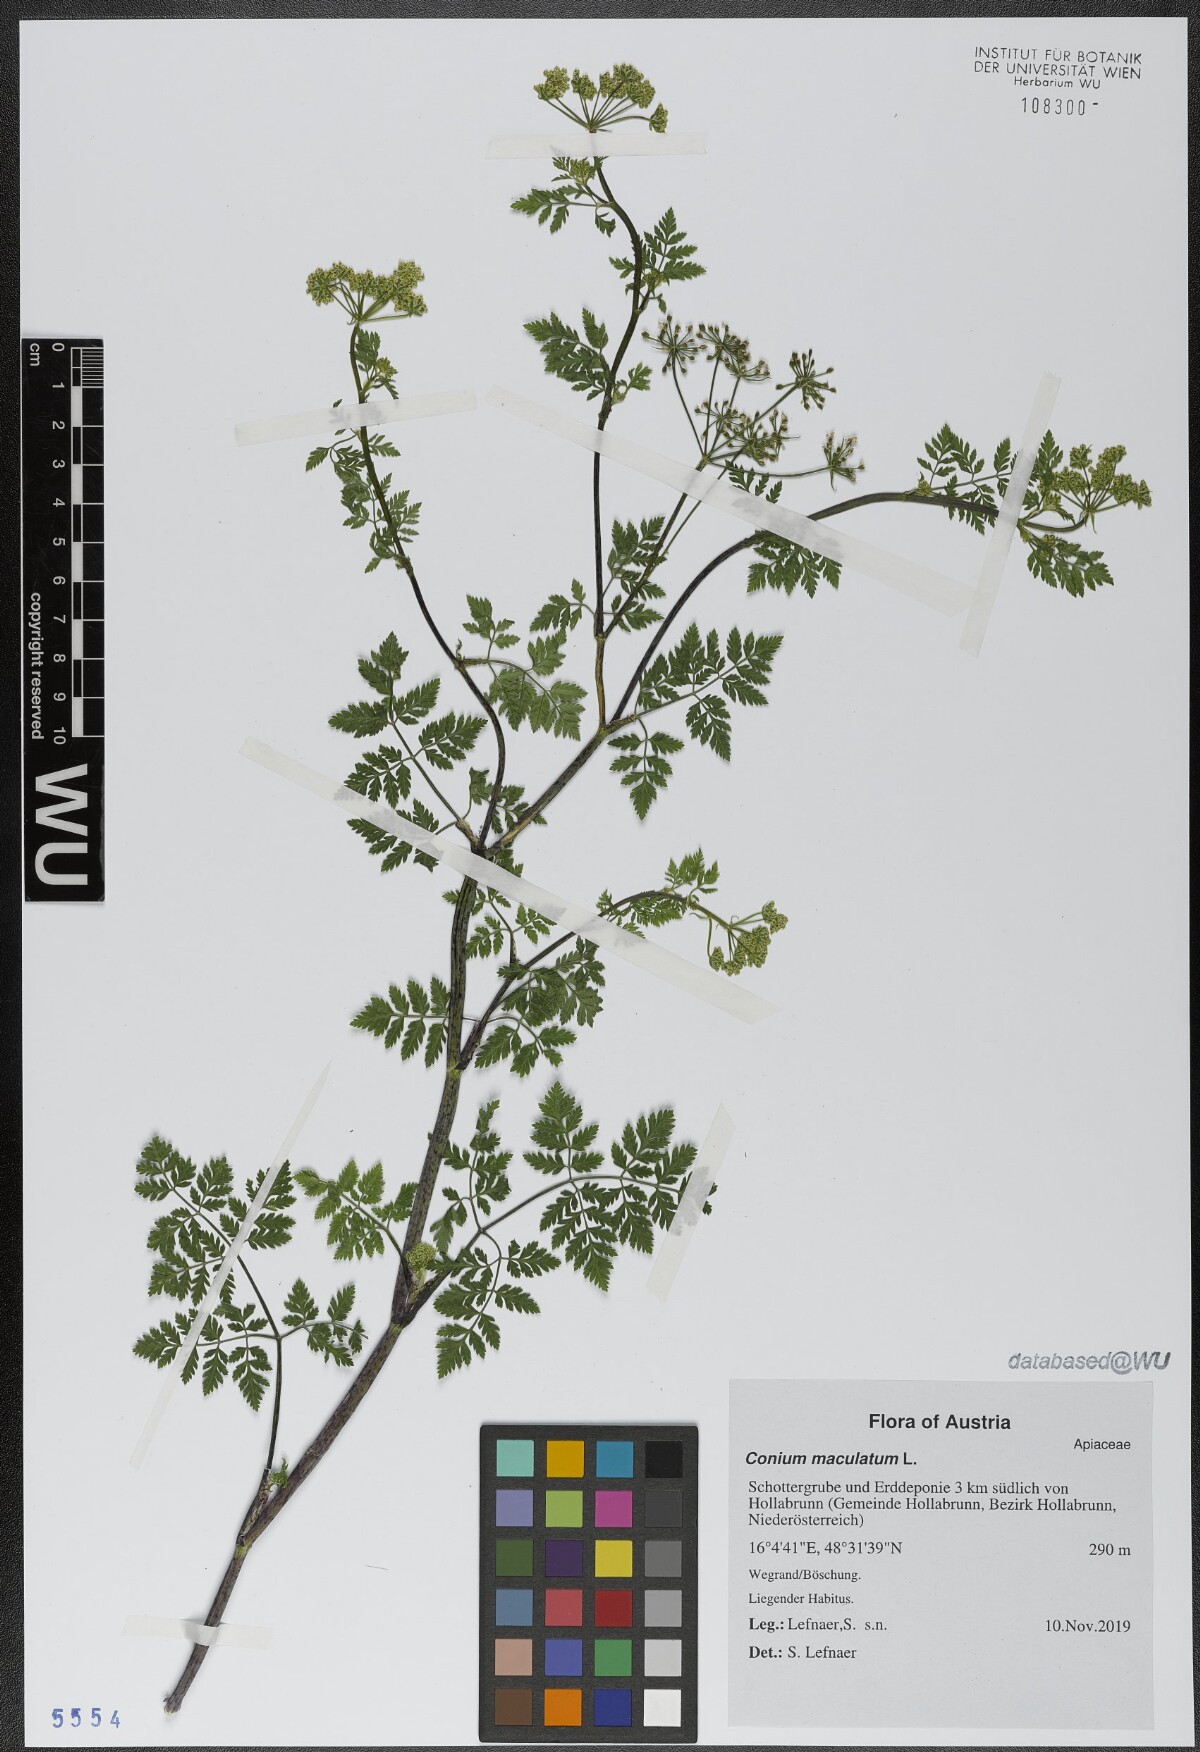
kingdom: Plantae
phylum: Tracheophyta
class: Magnoliopsida
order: Apiales
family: Apiaceae
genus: Conium
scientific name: Conium maculatum
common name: Hemlock
